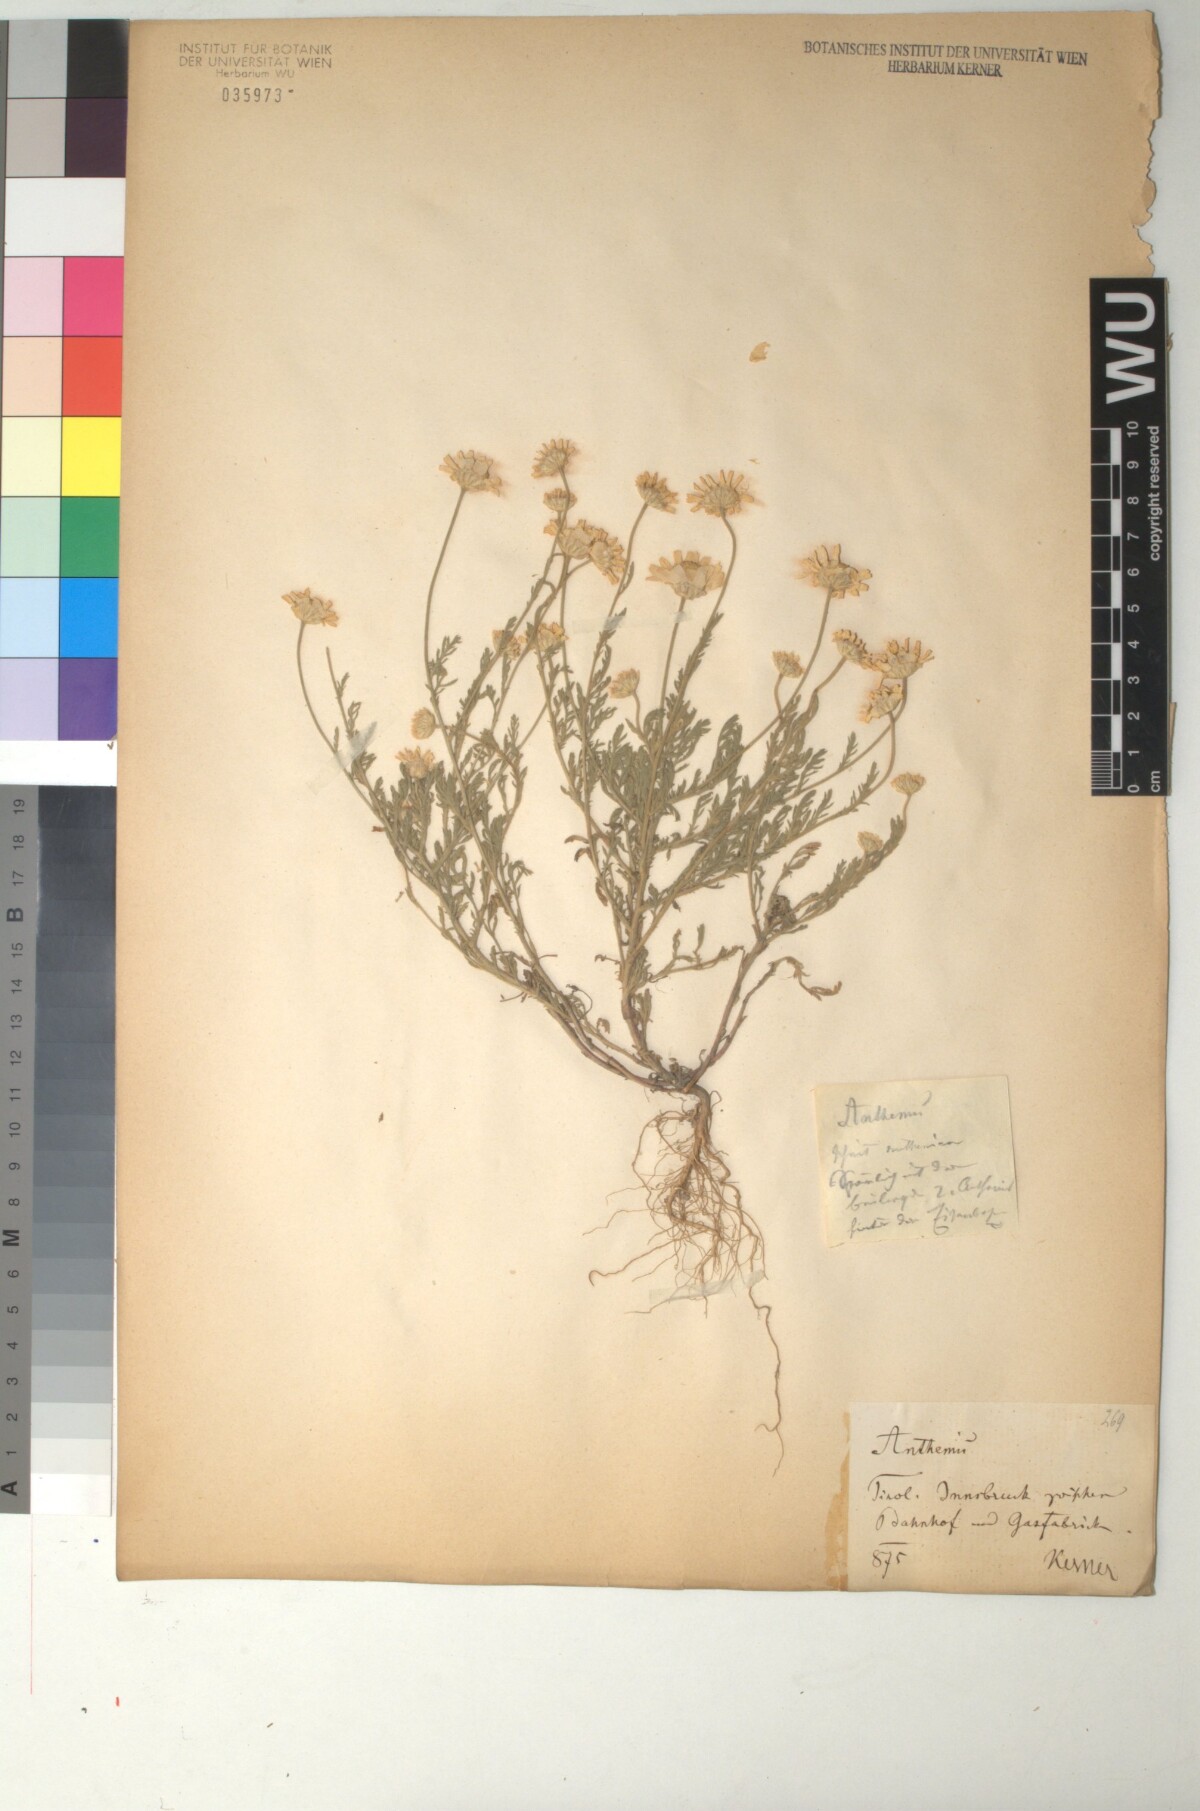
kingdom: Plantae
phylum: Tracheophyta
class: Magnoliopsida
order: Asterales
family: Asteraceae
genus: Cota
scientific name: Cota austriaca
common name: Austrian chamomile
